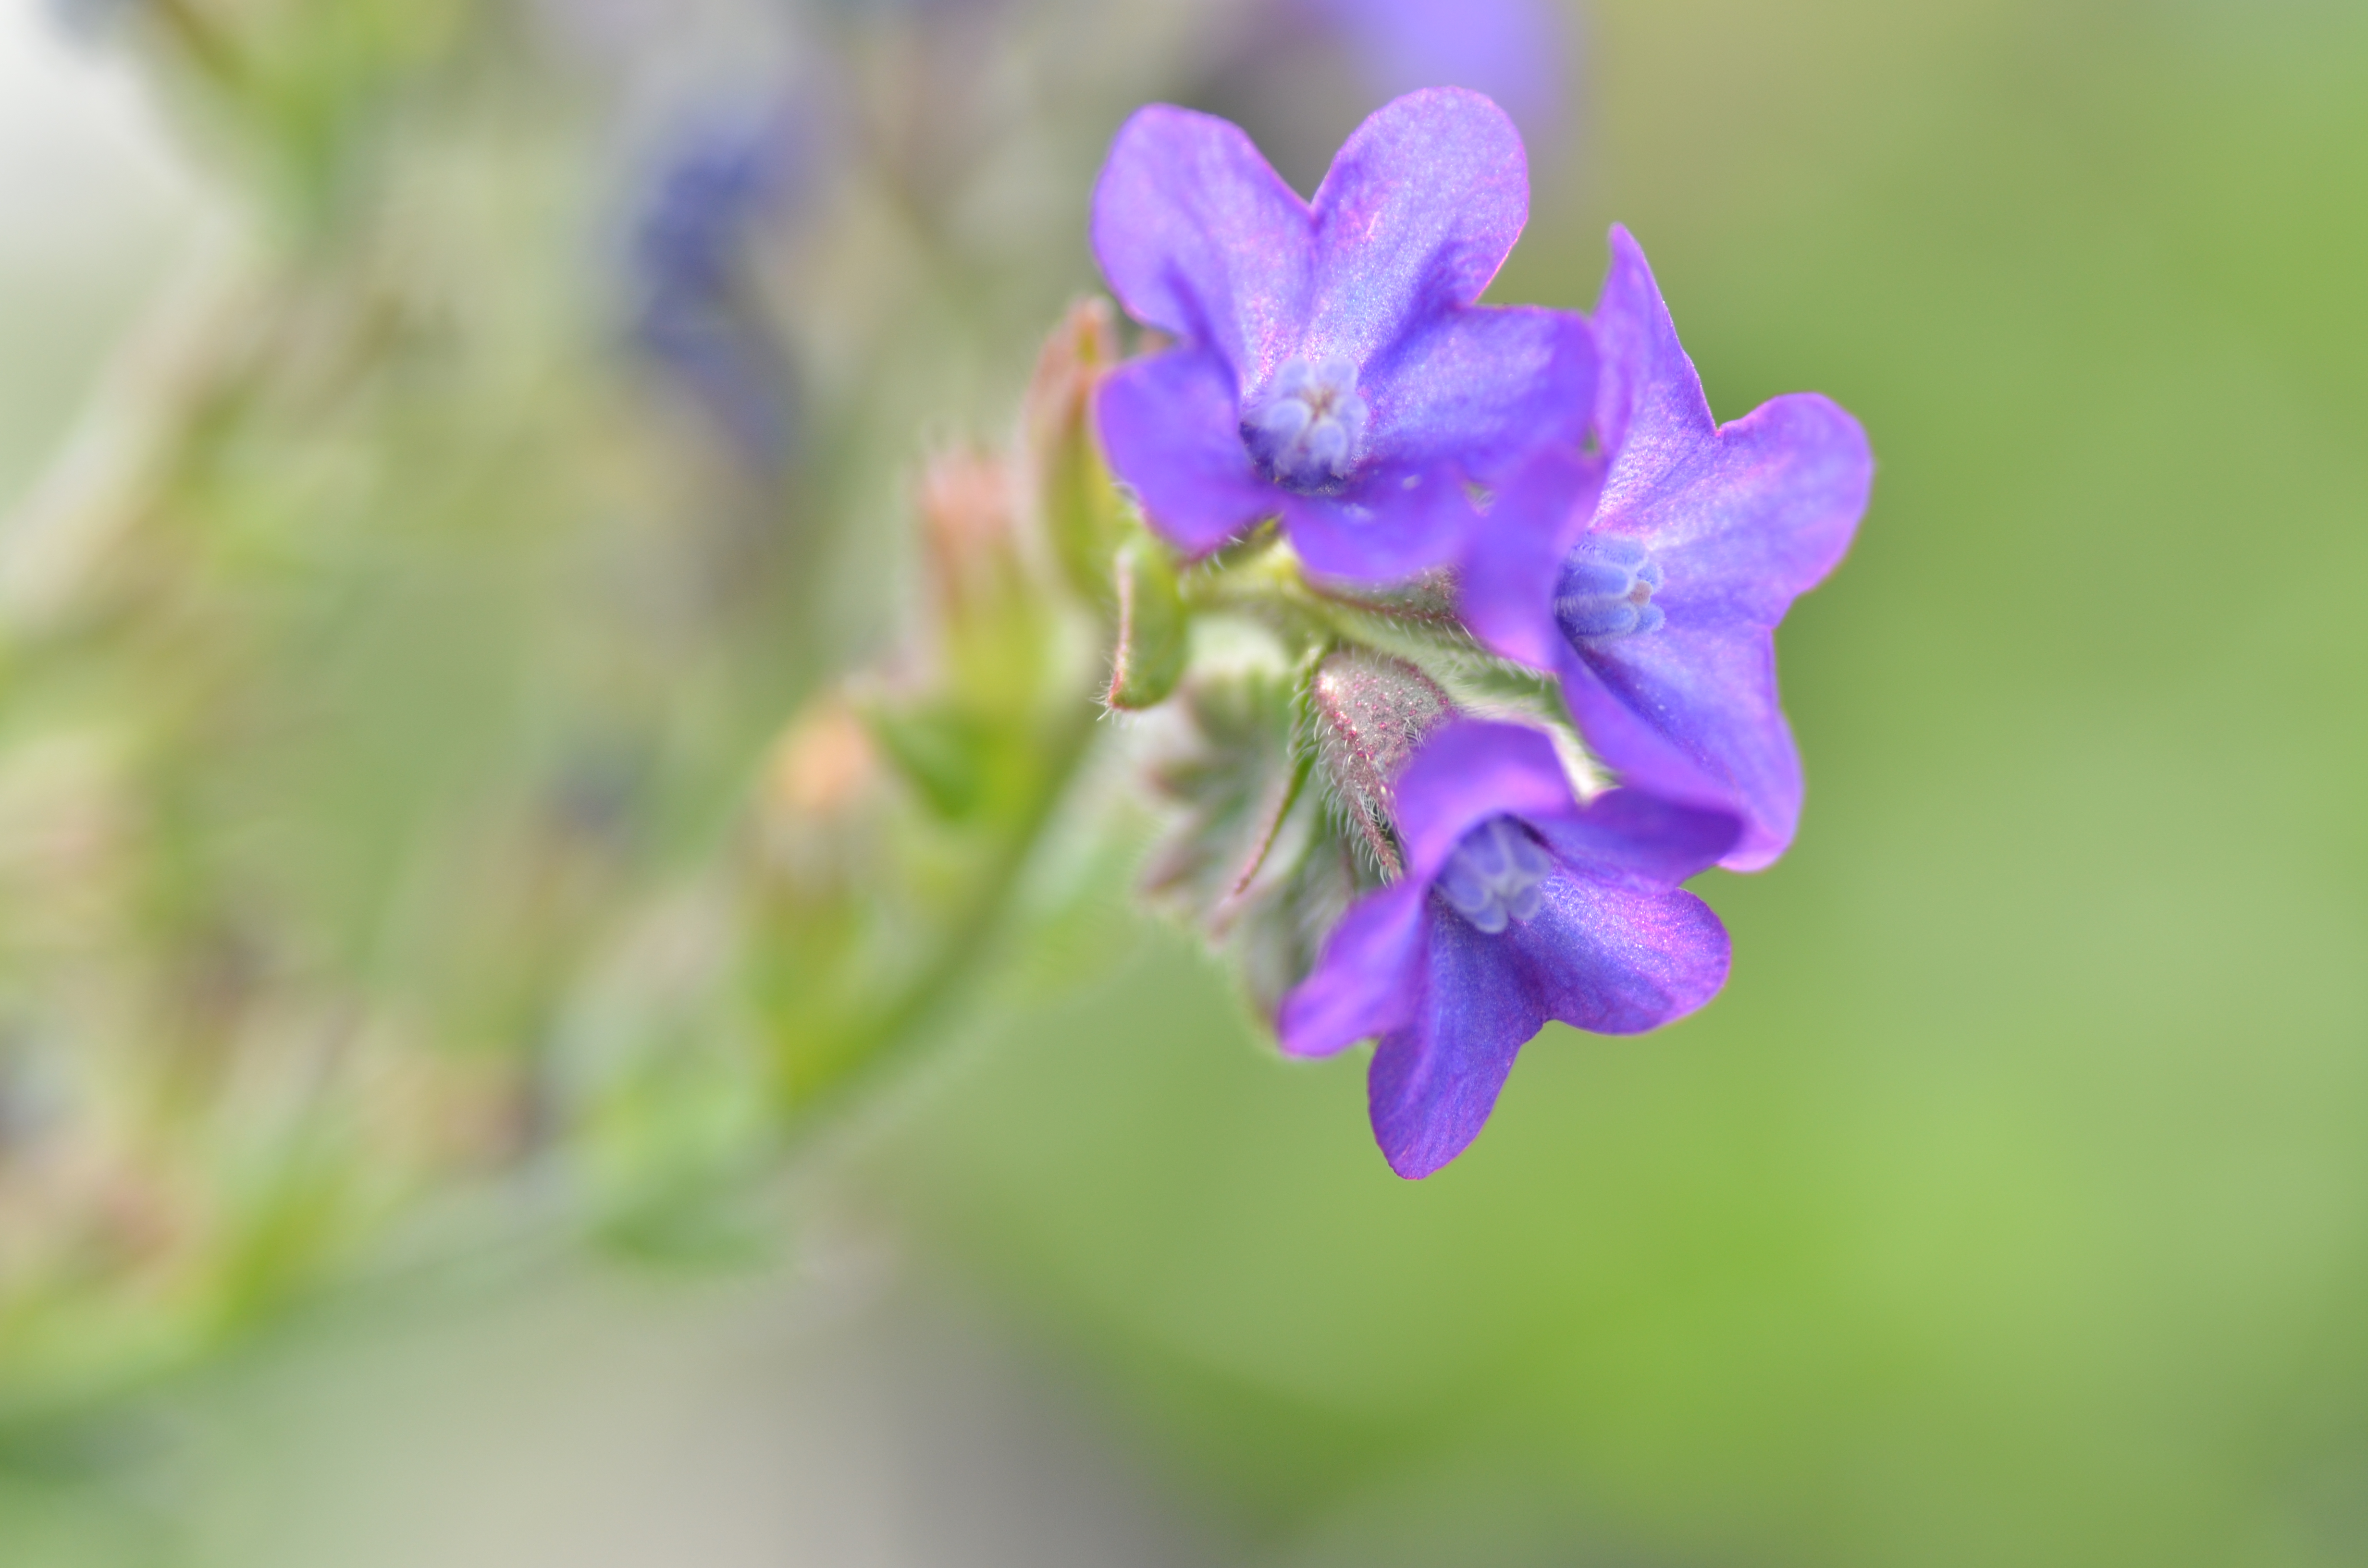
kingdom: Plantae
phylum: Tracheophyta
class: Magnoliopsida
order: Boraginales
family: Boraginaceae
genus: Anchusa
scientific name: Anchusa officinalis
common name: Alkanet
